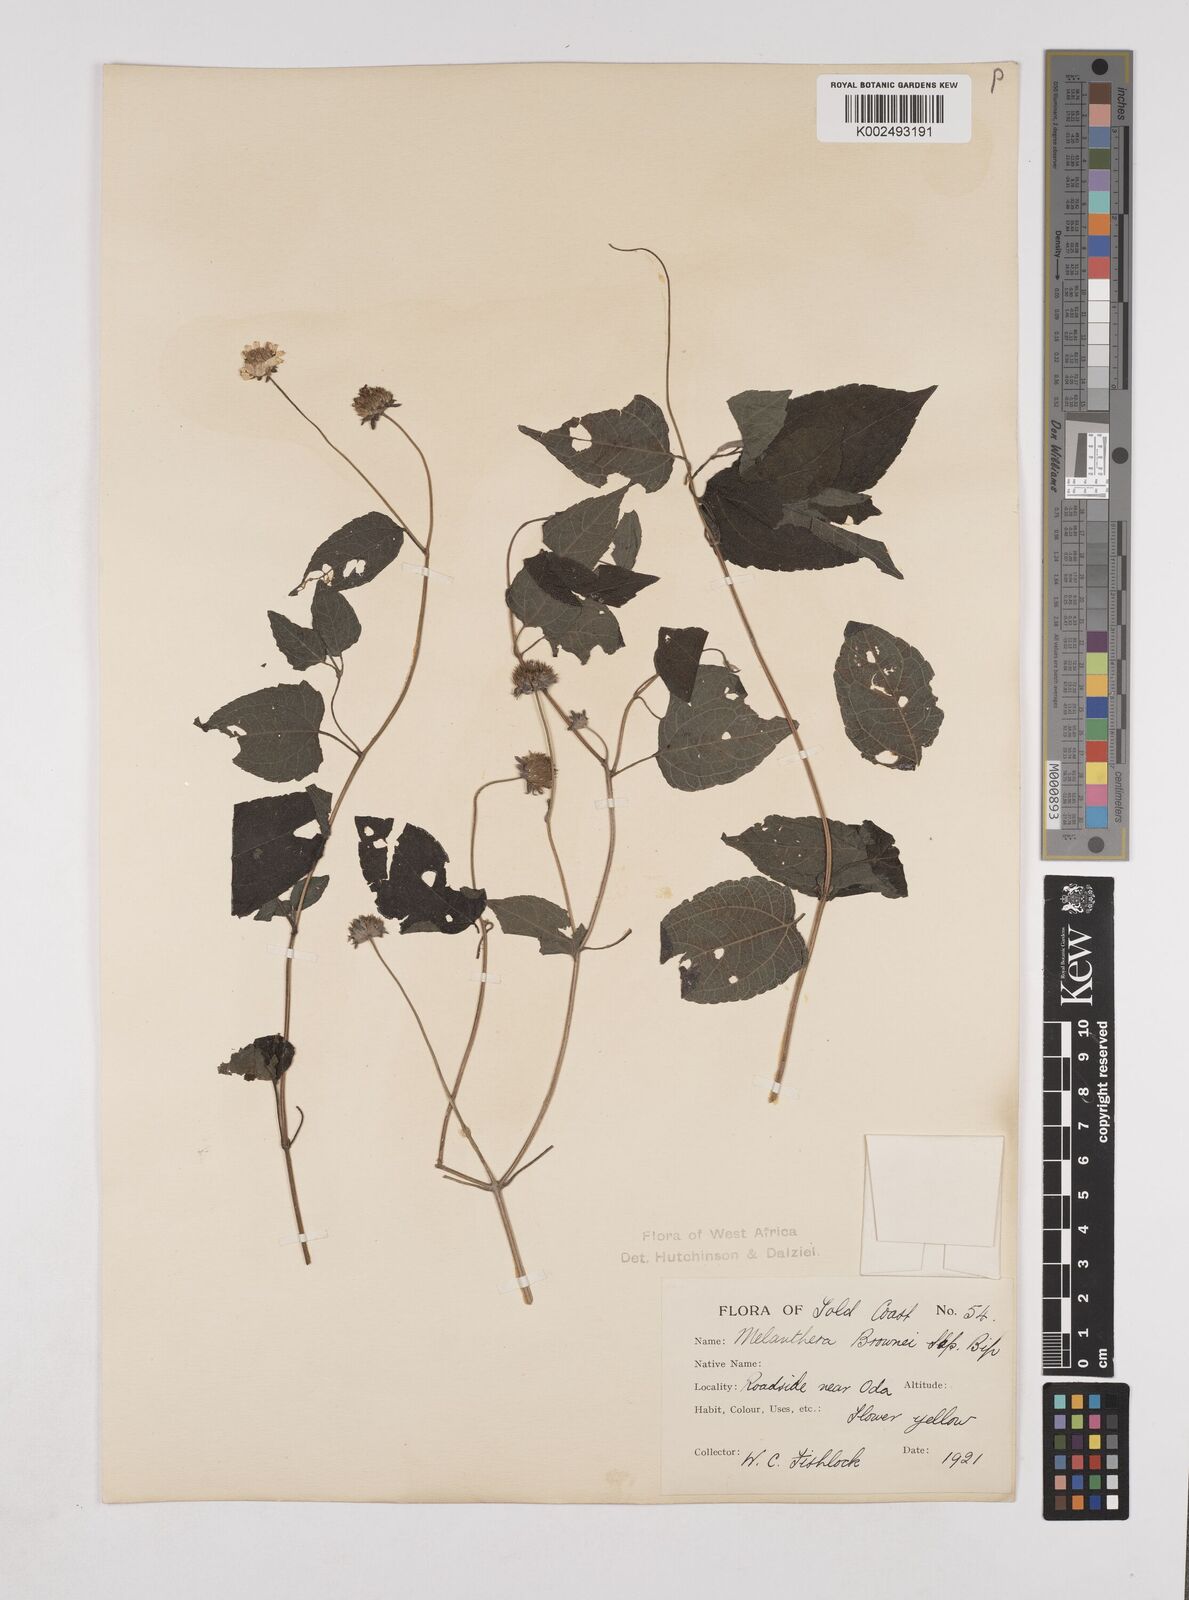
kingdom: Plantae
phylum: Tracheophyta
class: Magnoliopsida
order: Asterales
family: Asteraceae
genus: Lipotriche
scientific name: Lipotriche scandens
